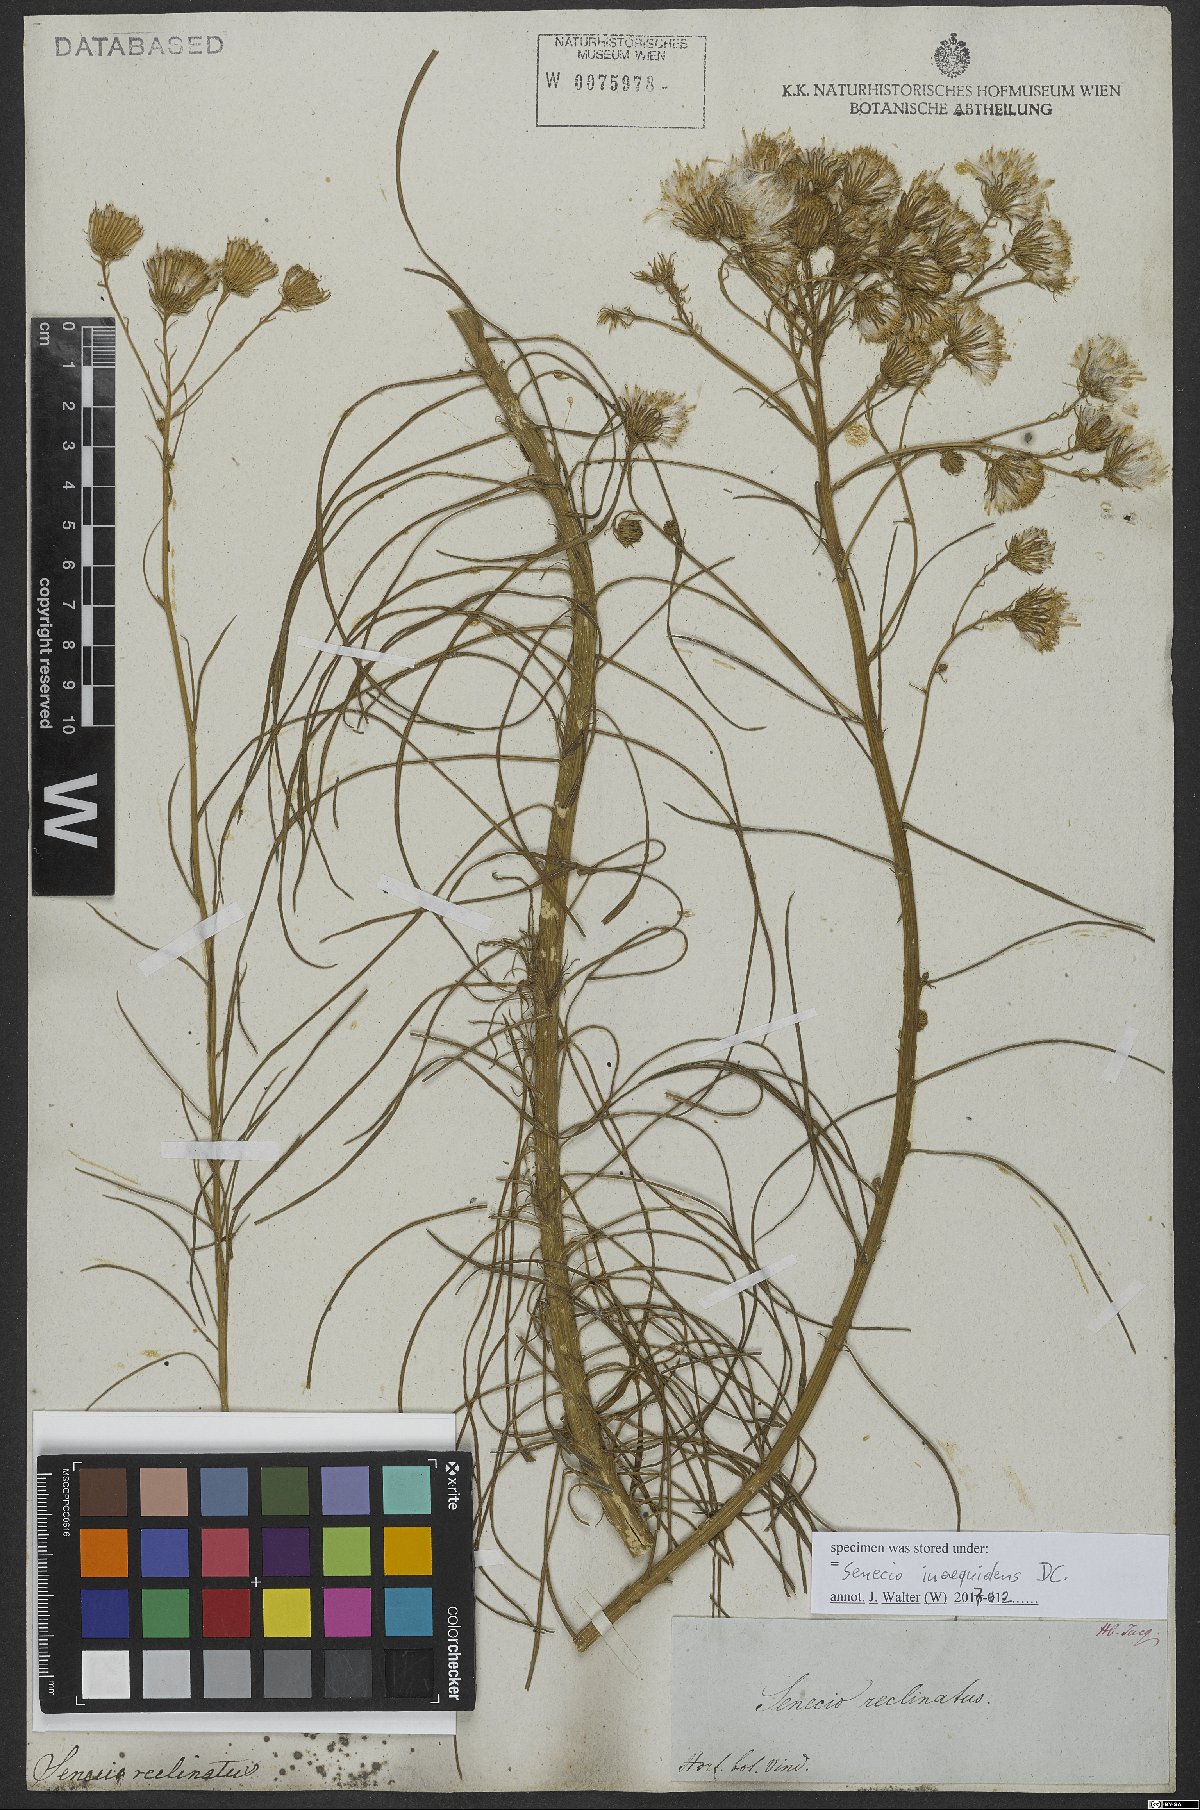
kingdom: Plantae
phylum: Tracheophyta
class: Magnoliopsida
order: Asterales
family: Asteraceae
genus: Senecio
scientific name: Senecio inaequidens
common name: Narrow-leaved ragwort
